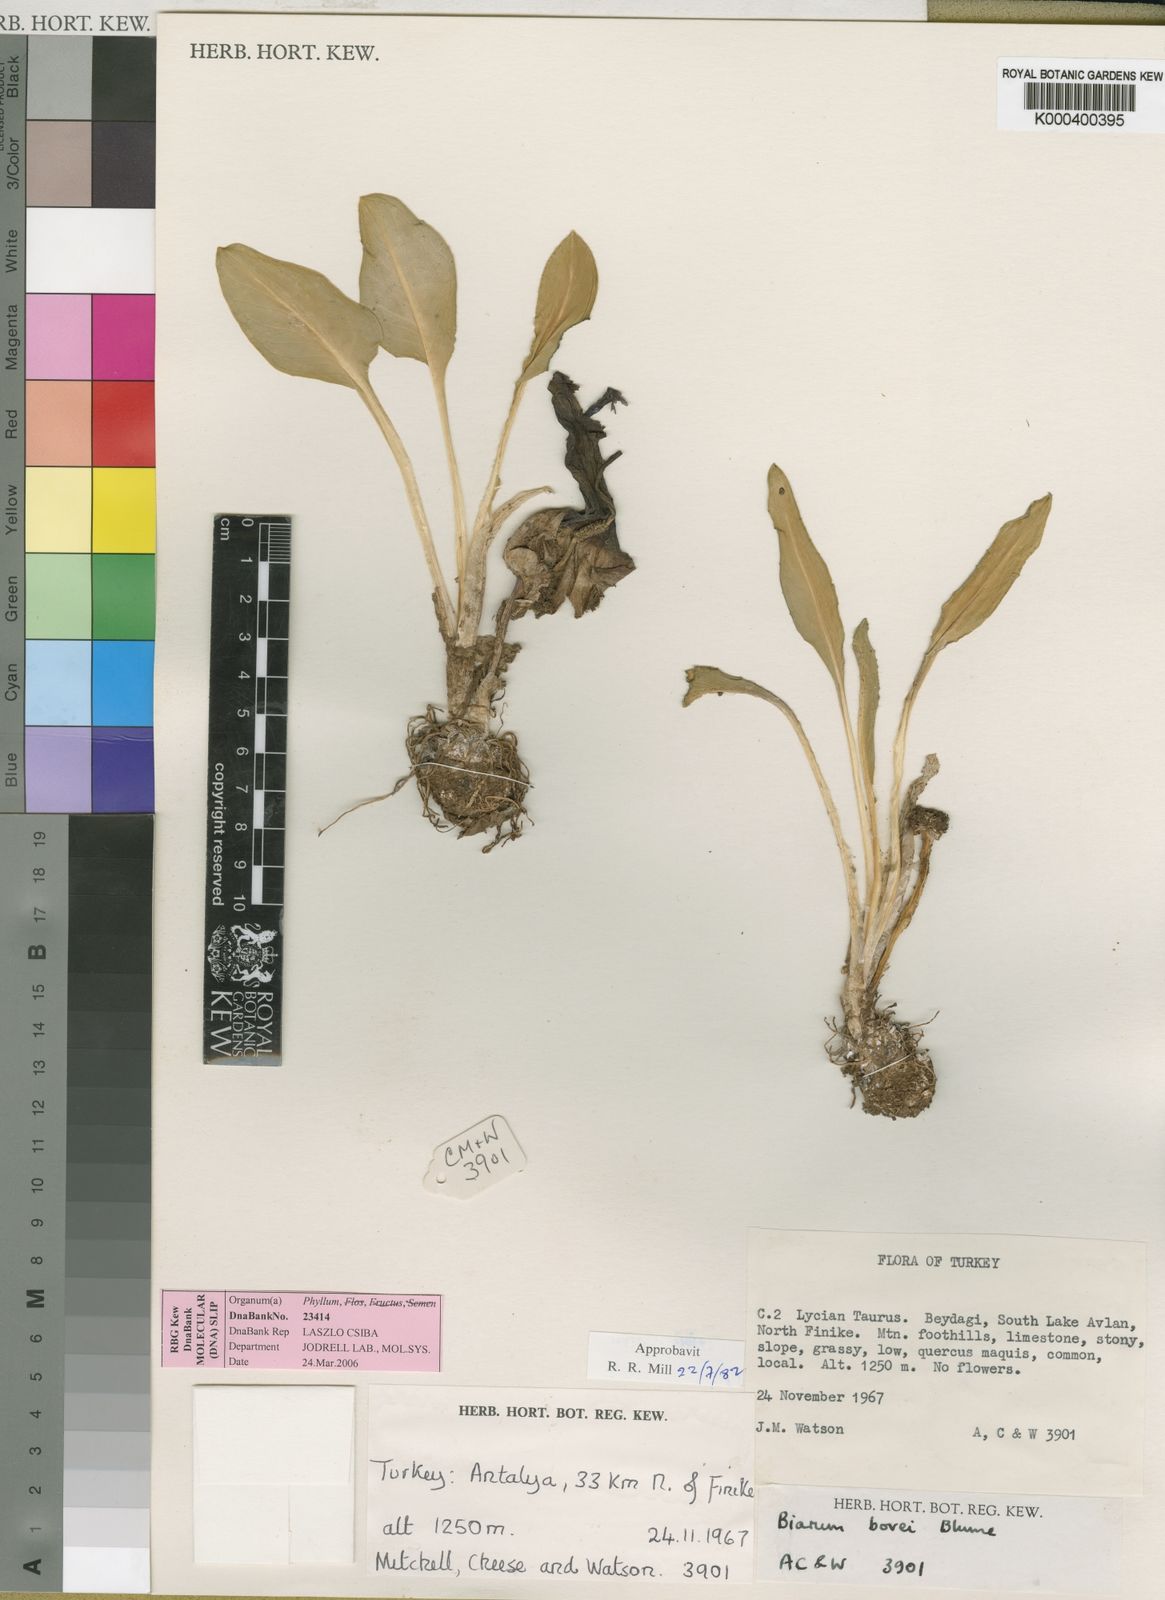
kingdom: Plantae
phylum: Tracheophyta
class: Liliopsida
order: Alismatales
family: Araceae
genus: Biarum
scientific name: Biarum bovei
